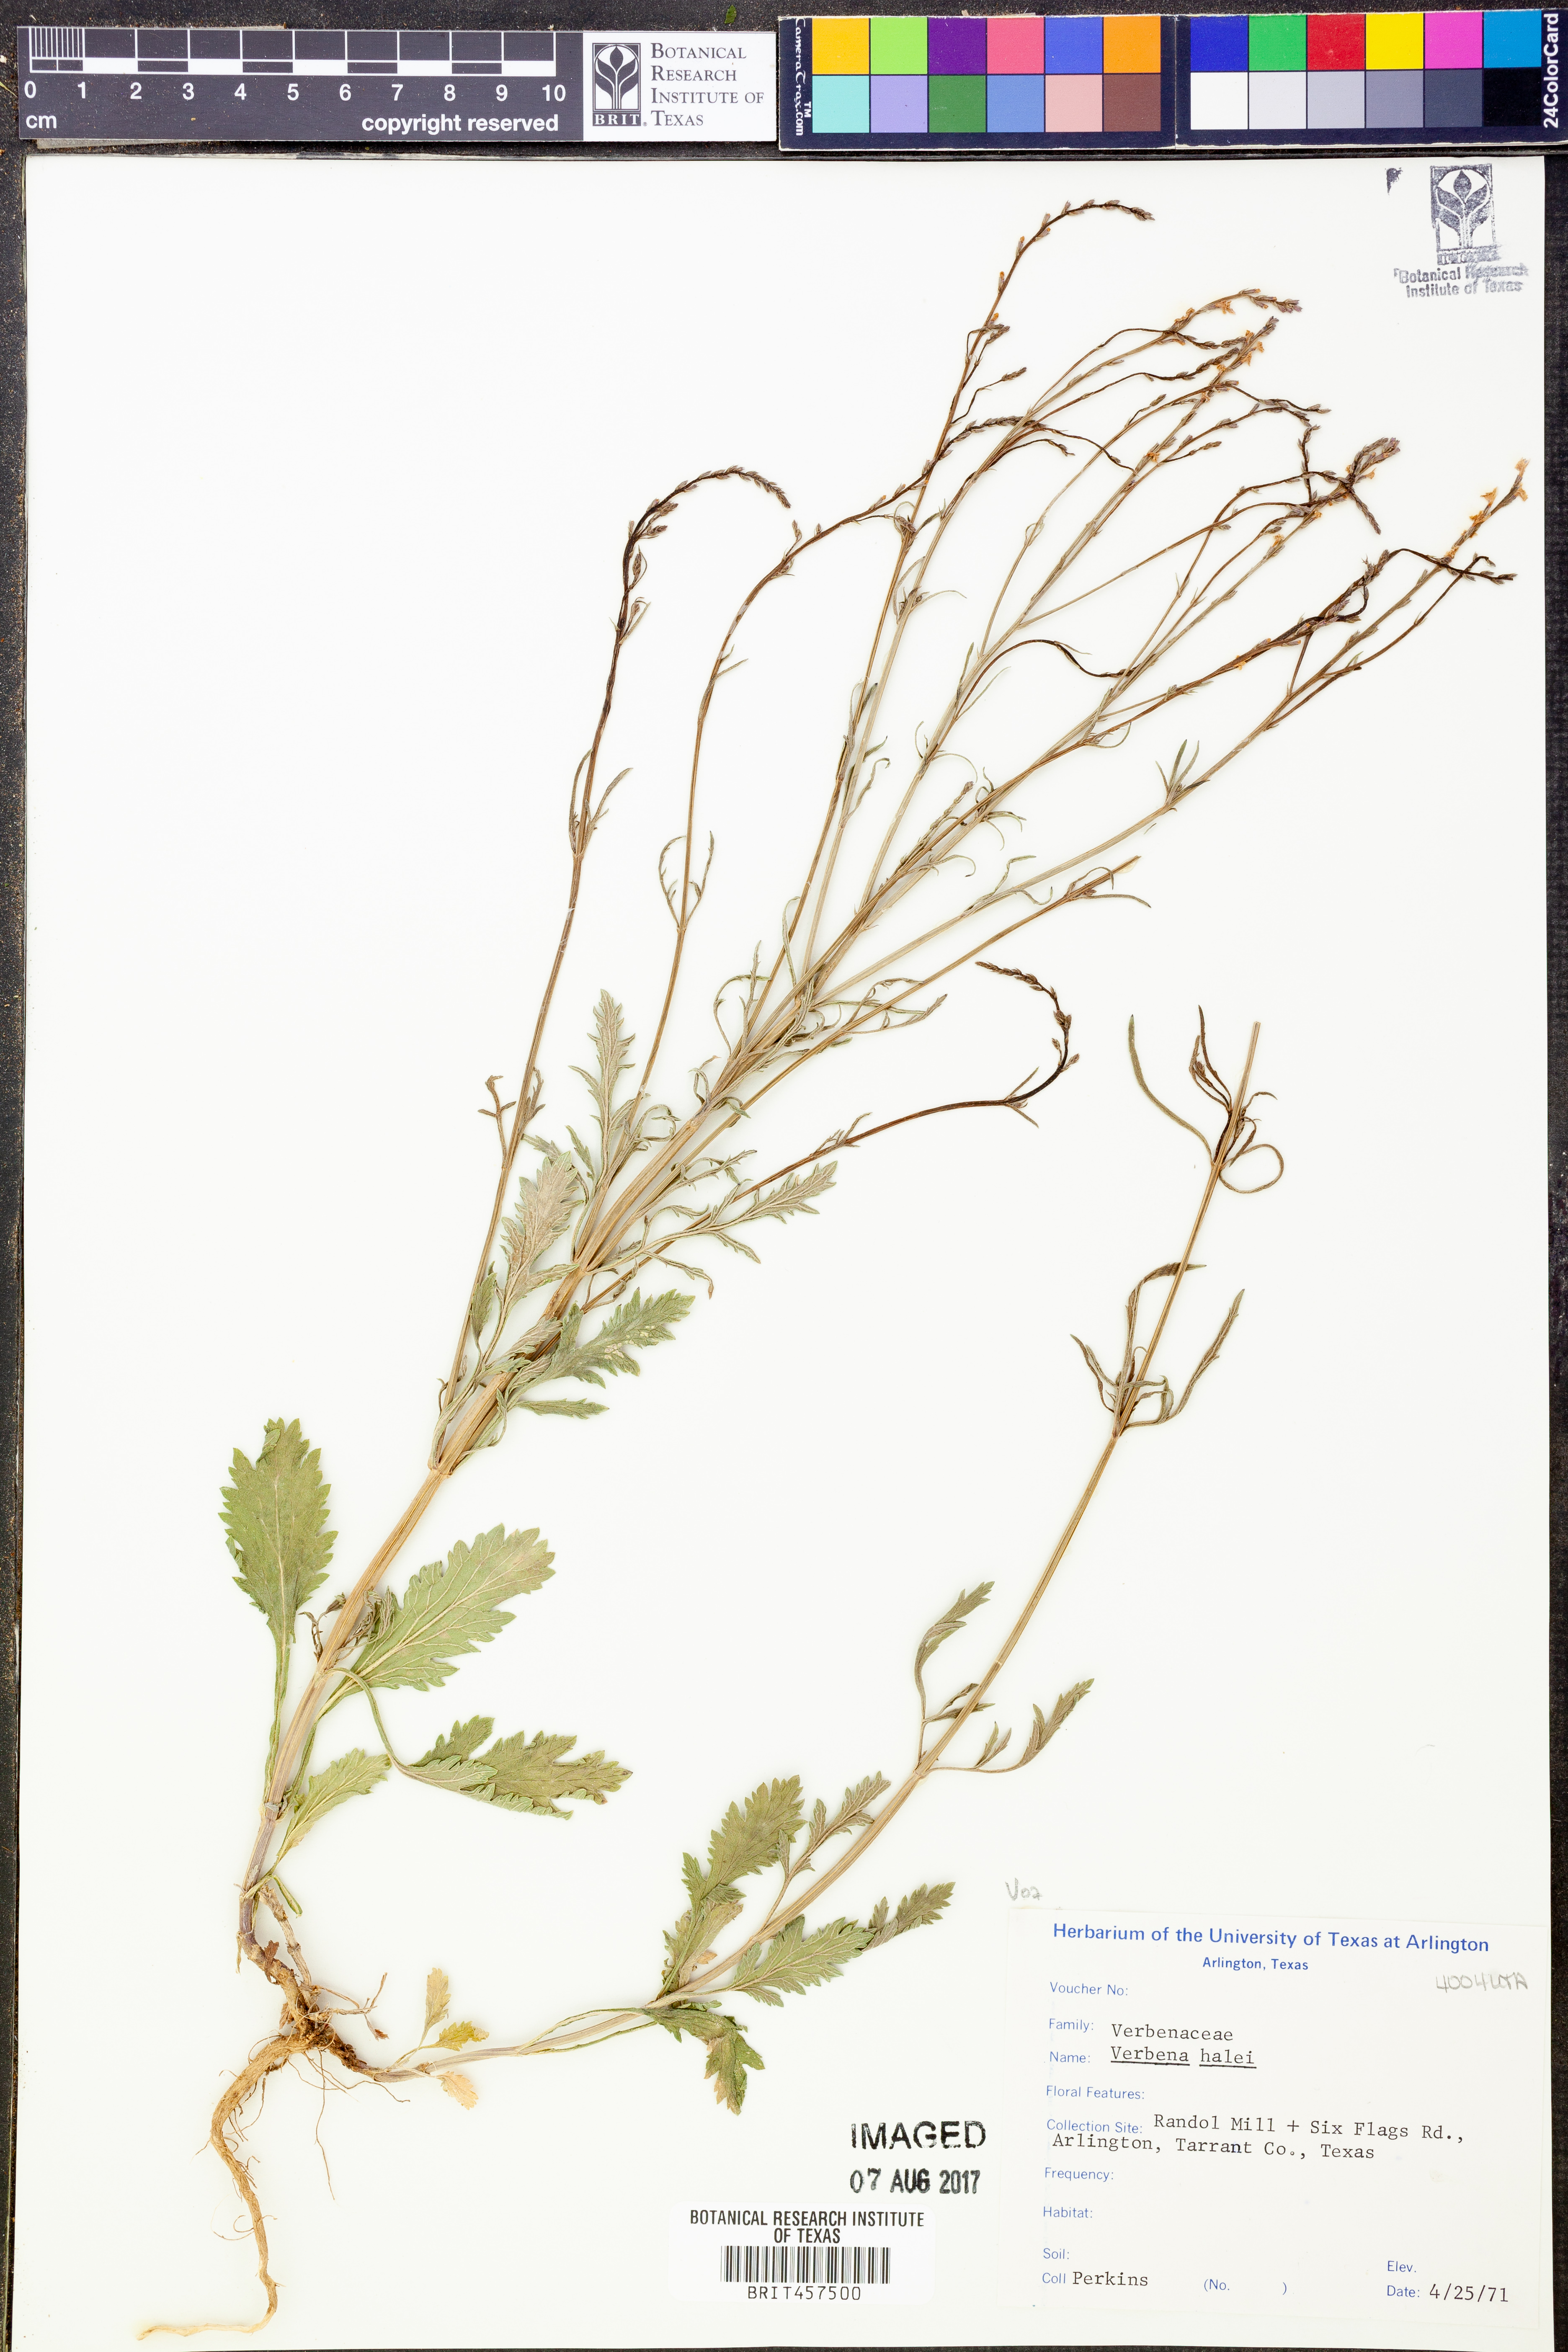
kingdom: Plantae
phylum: Tracheophyta
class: Magnoliopsida
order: Lamiales
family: Verbenaceae
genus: Verbena
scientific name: Verbena halei
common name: Texas vervain
